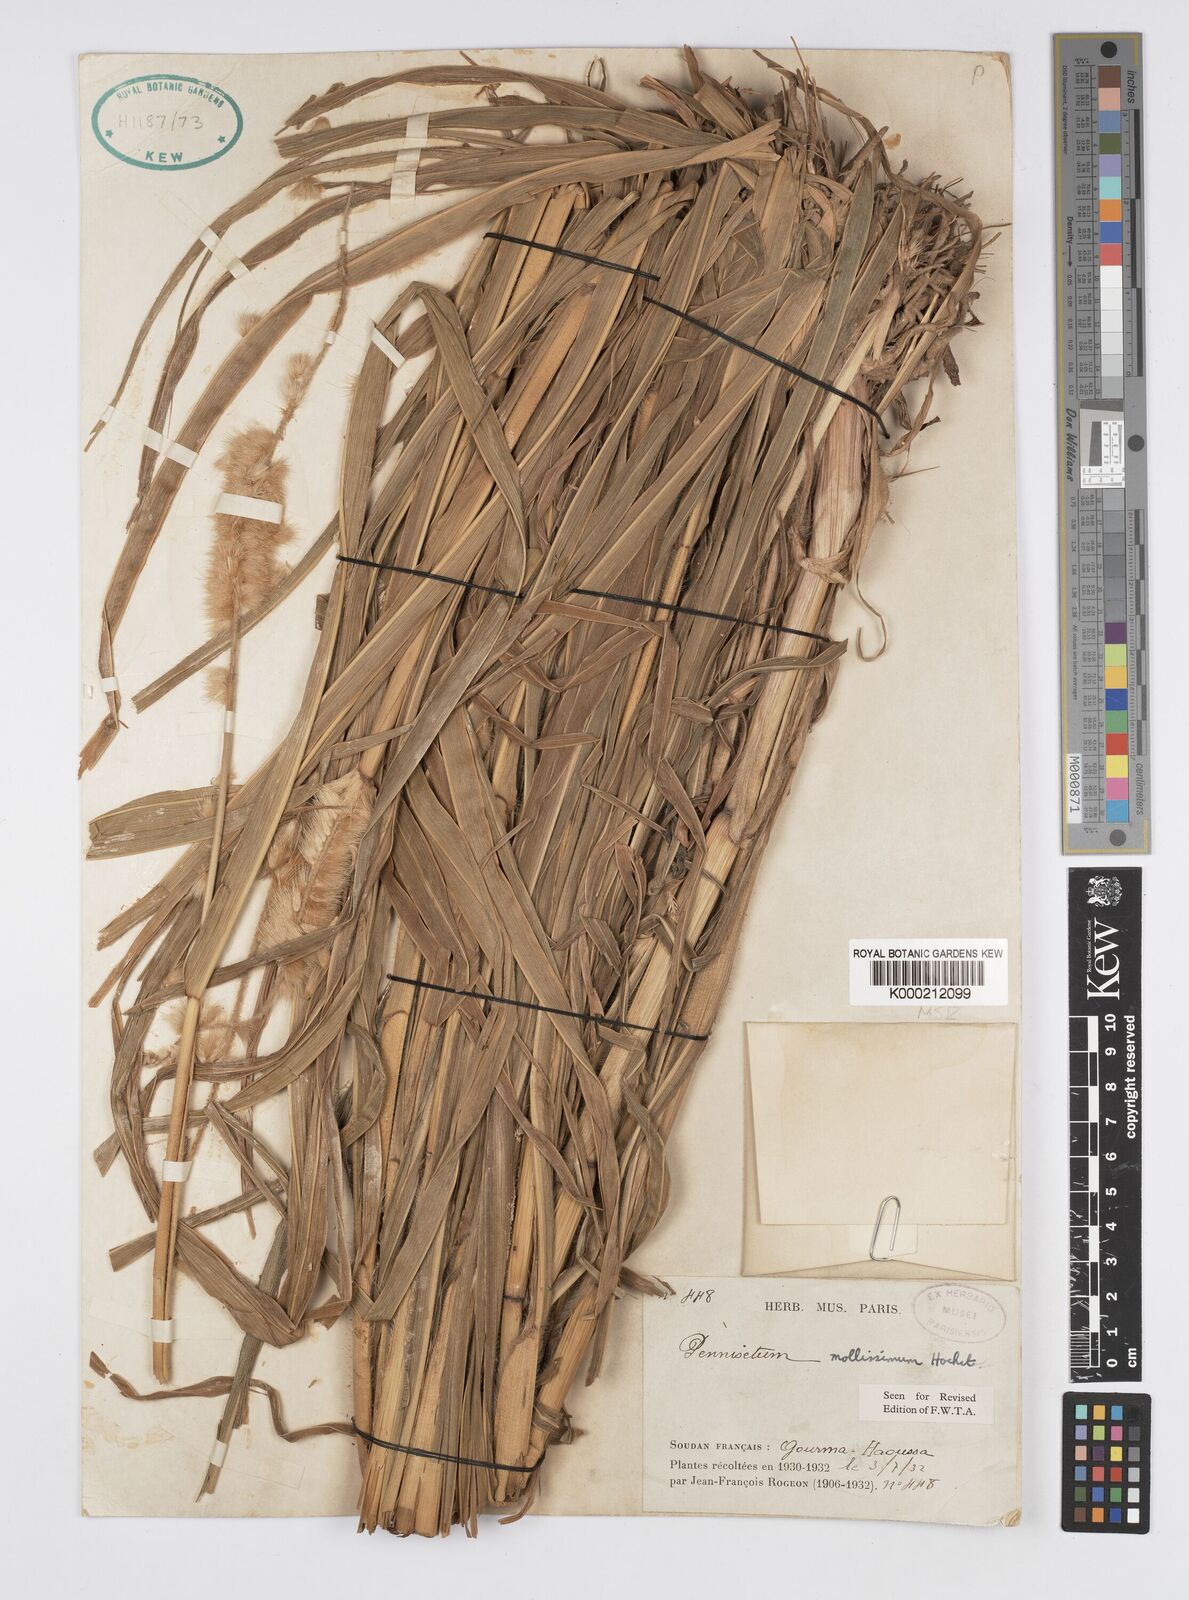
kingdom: Plantae
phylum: Tracheophyta
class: Liliopsida
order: Poales
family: Poaceae
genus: Cenchrus
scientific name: Cenchrus violaceus
